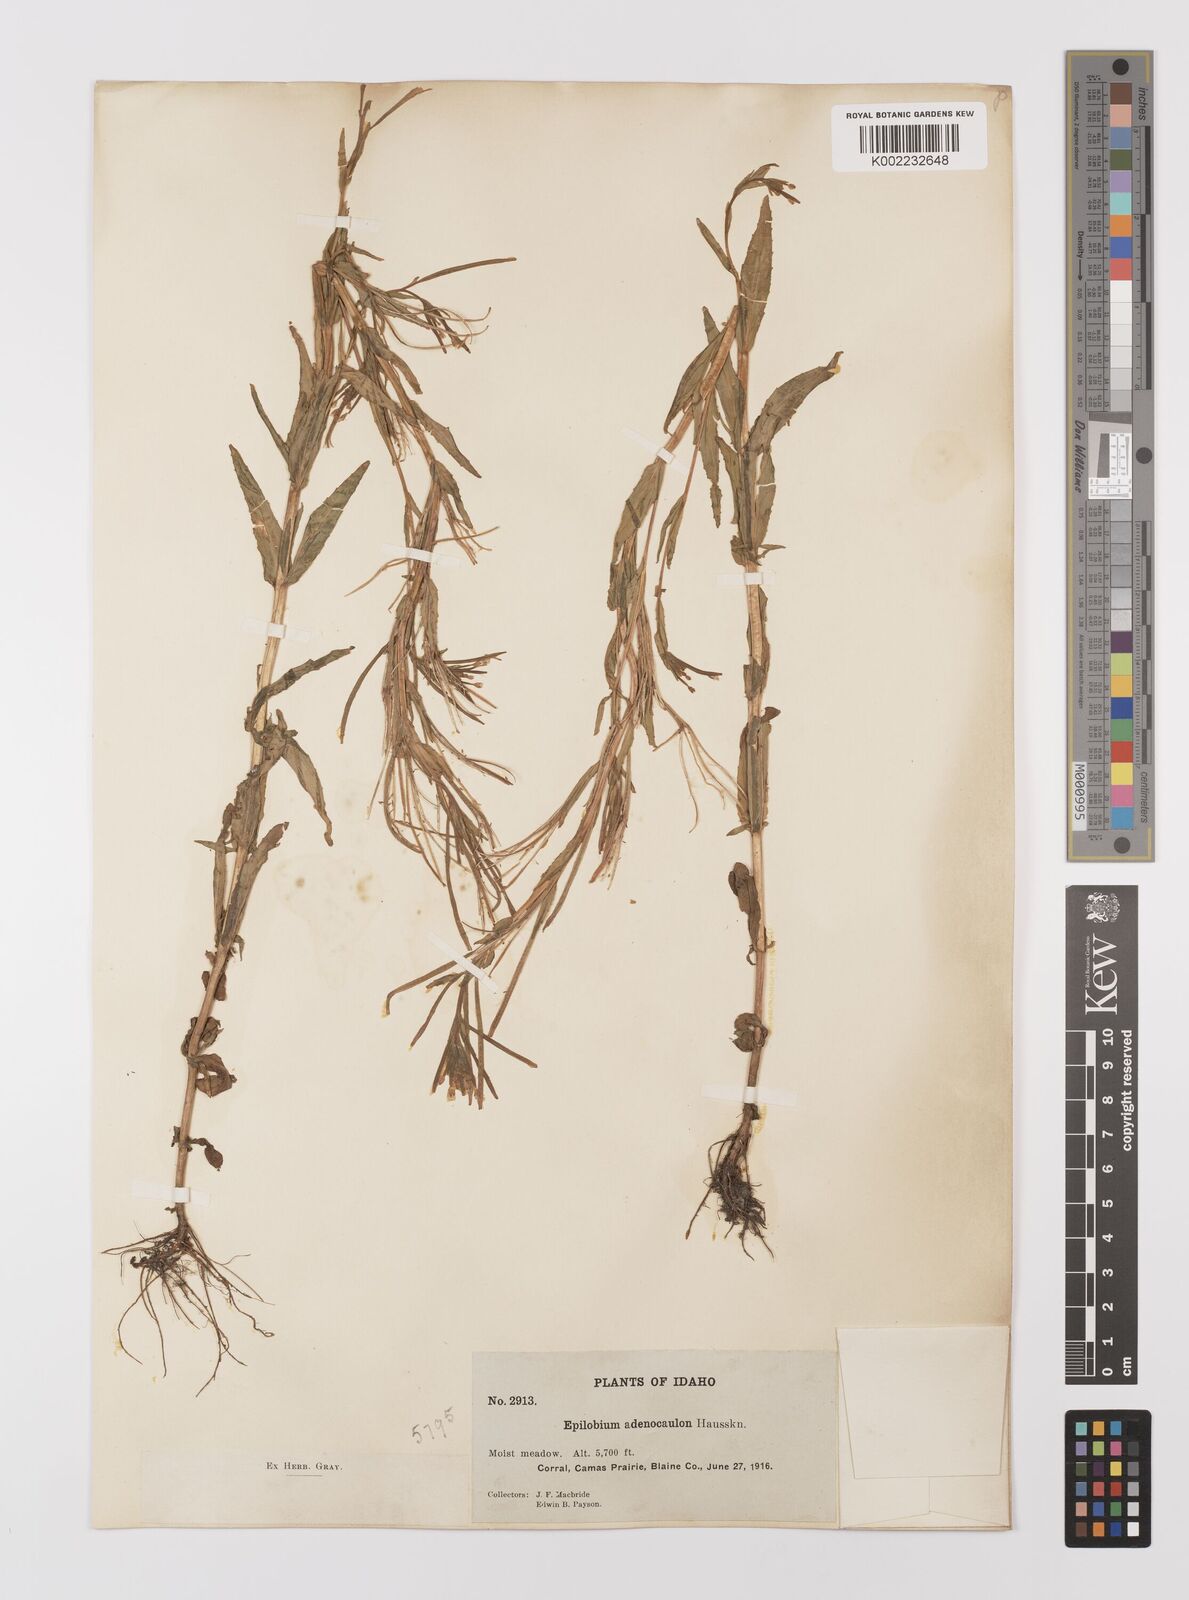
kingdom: Plantae
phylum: Tracheophyta
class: Magnoliopsida
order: Myrtales
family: Onagraceae
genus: Epilobium
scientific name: Epilobium ciliatum
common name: American willowherb
